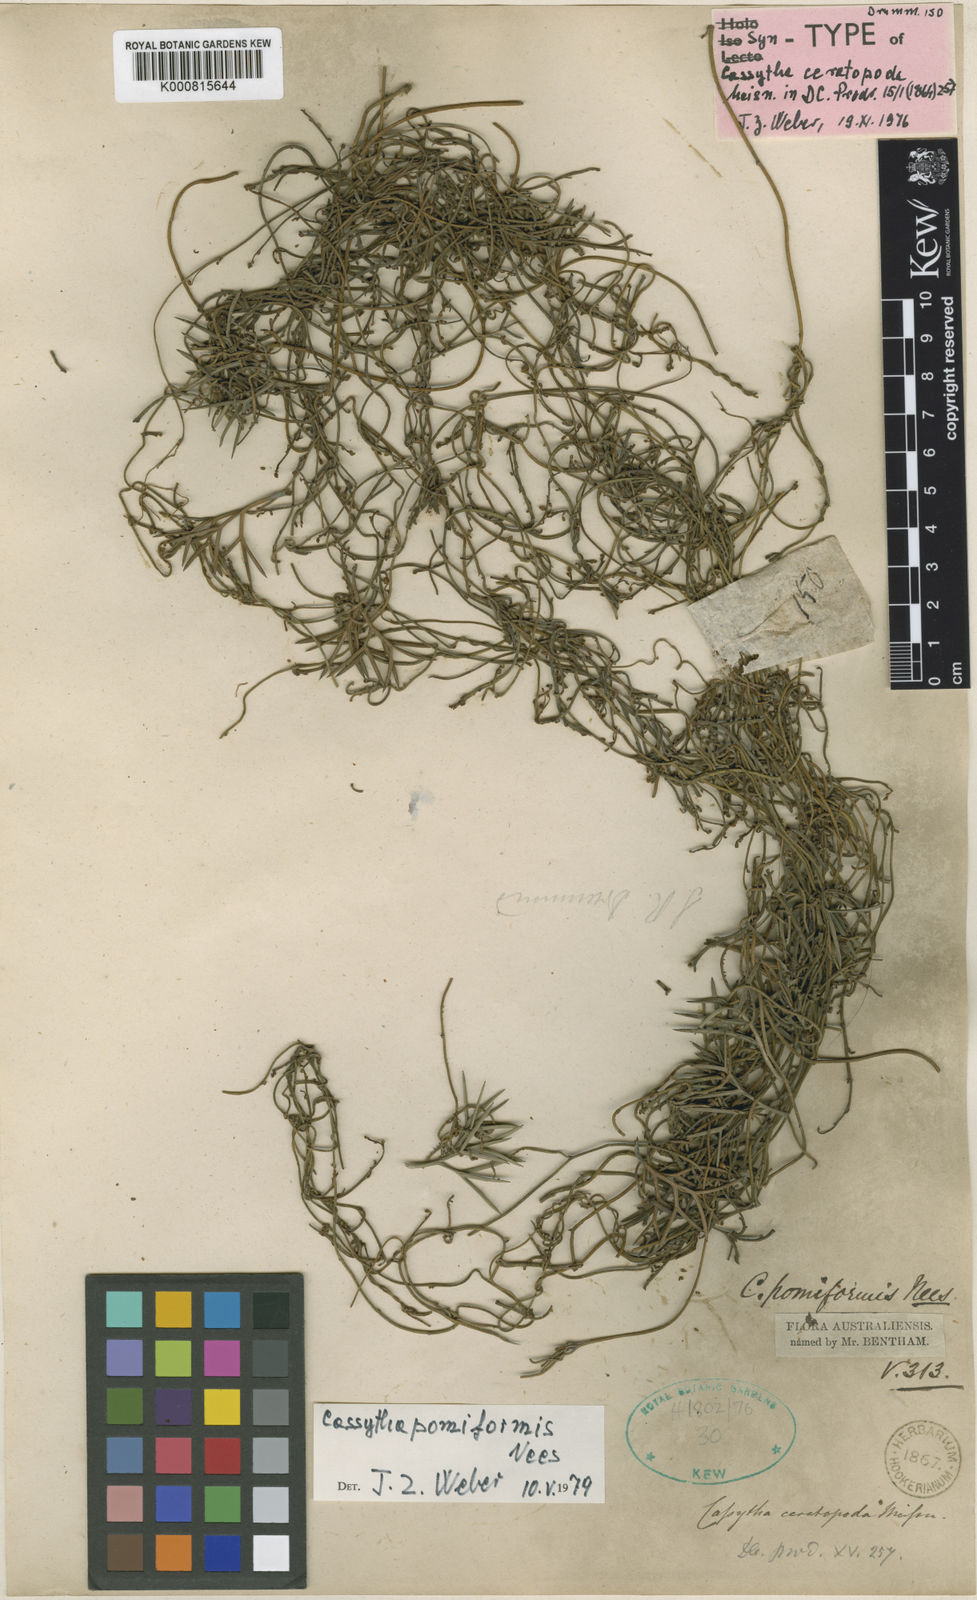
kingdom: Plantae
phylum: Tracheophyta
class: Magnoliopsida
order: Laurales
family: Lauraceae
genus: Cassytha
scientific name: Cassytha pomiformis
